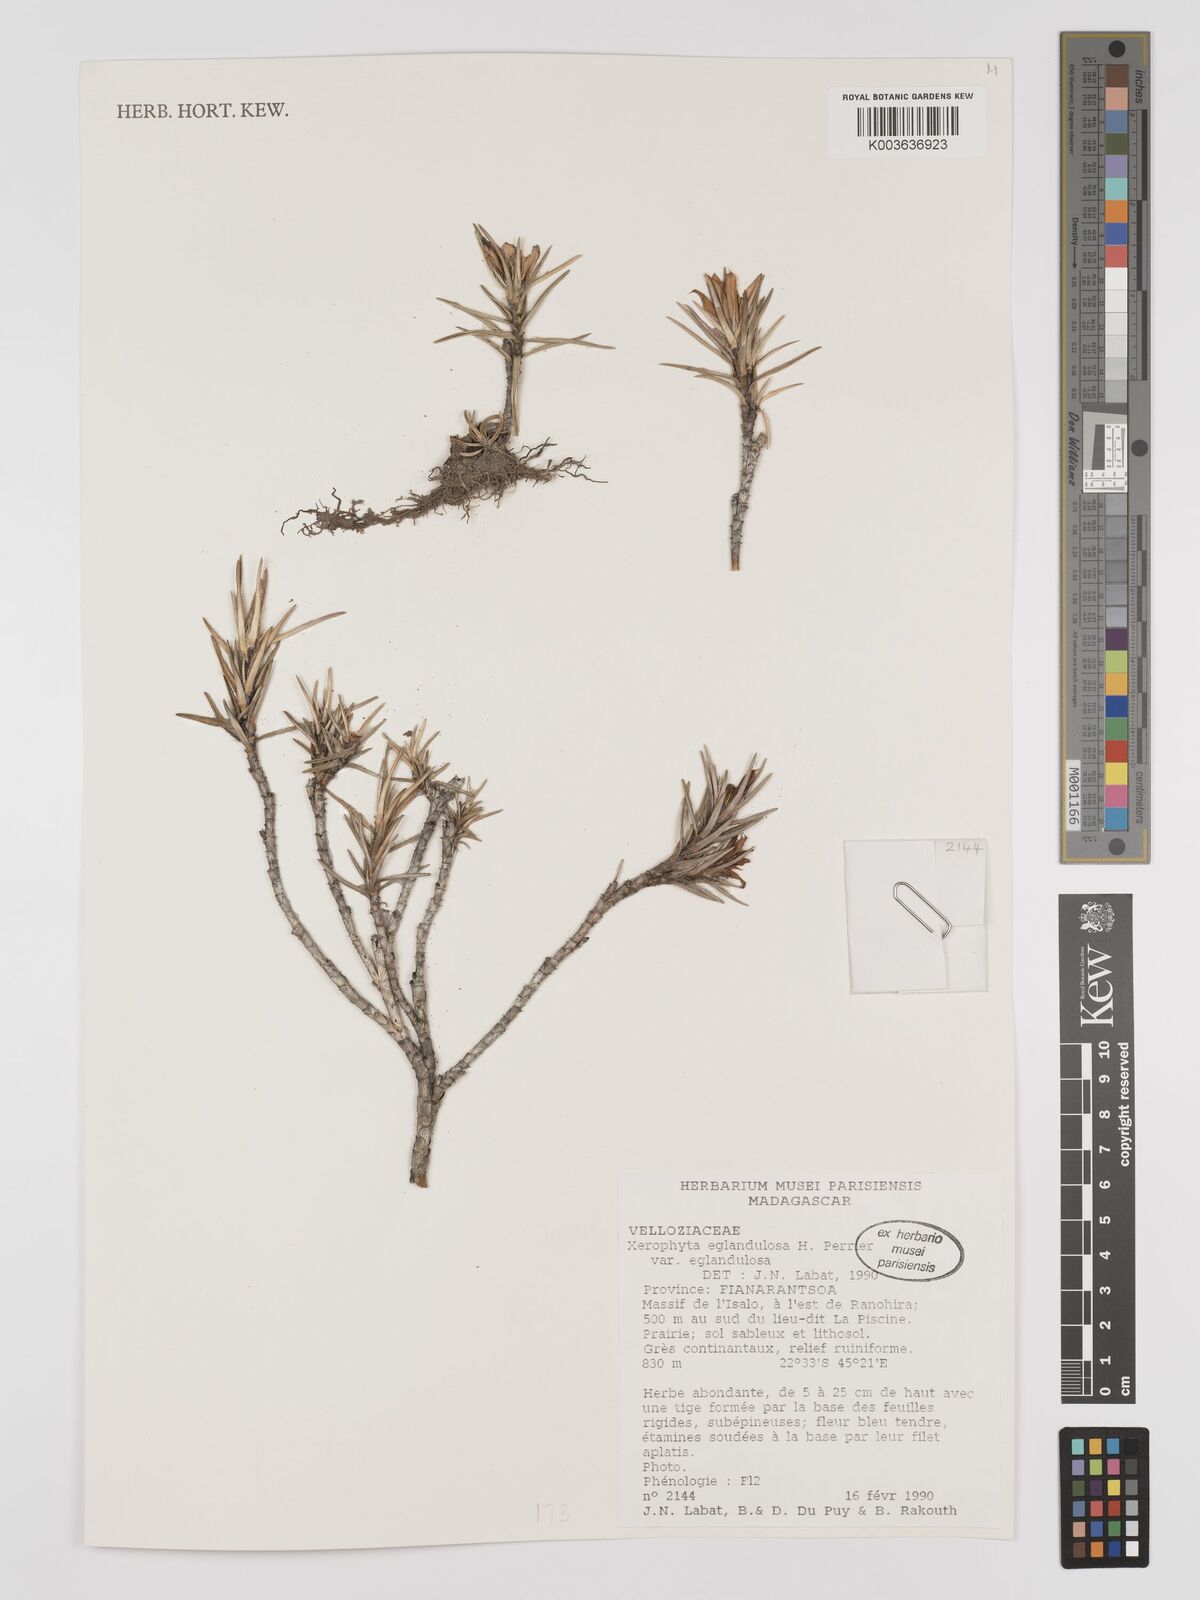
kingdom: Plantae
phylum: Tracheophyta
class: Liliopsida
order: Pandanales
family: Velloziaceae
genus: Xerophyta
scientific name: Xerophyta eglandulosa
